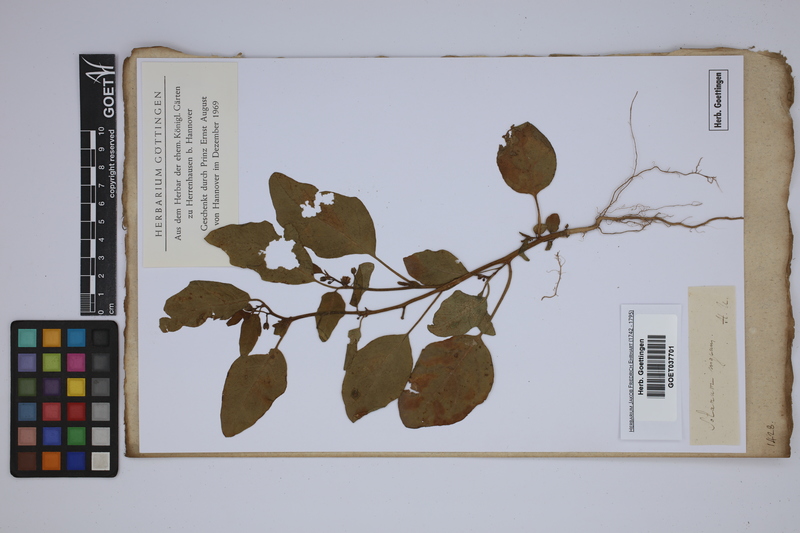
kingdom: Plantae
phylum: Tracheophyta
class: Magnoliopsida
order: Solanales
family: Solanaceae
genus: Solanum
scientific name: Solanum nigrum
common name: Black nightshade
